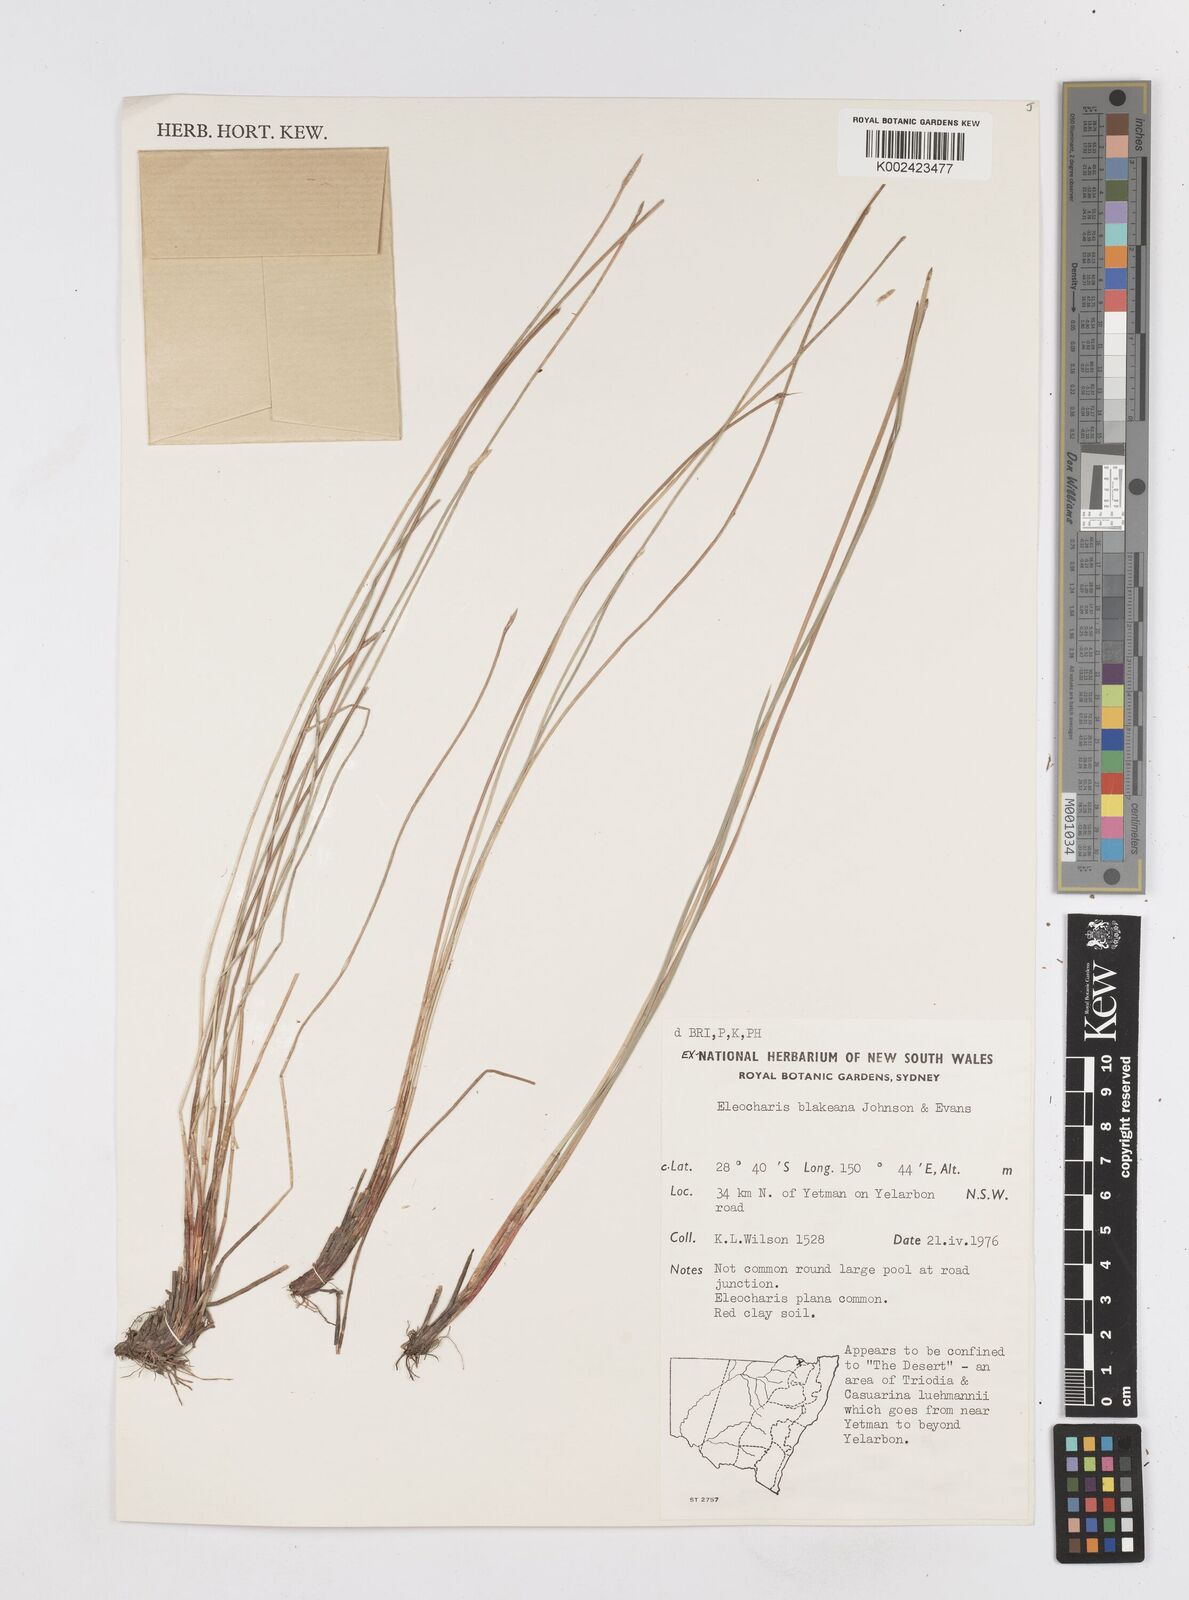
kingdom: Plantae
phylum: Tracheophyta
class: Liliopsida
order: Poales
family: Cyperaceae
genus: Eleocharis
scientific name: Eleocharis blakeana
